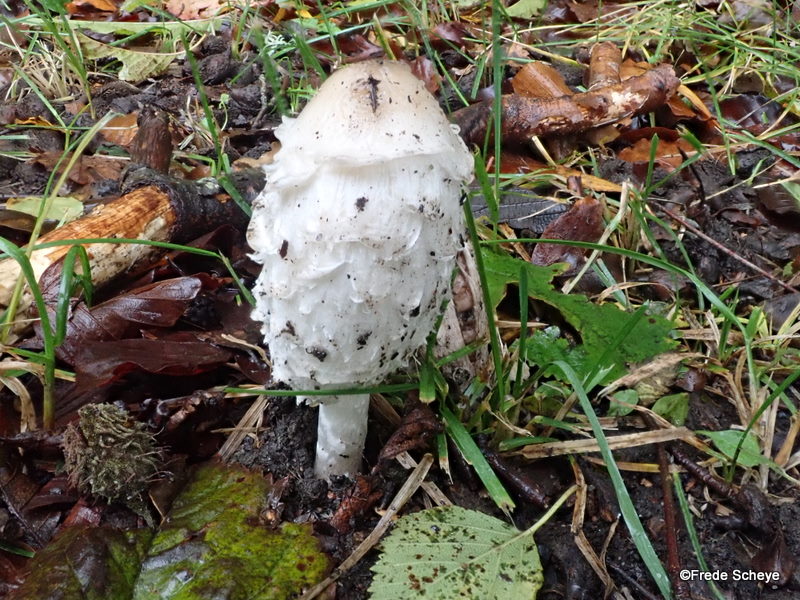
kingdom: Fungi
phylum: Basidiomycota
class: Agaricomycetes
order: Agaricales
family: Agaricaceae
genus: Coprinus
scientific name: Coprinus comatus
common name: stor parykhat
